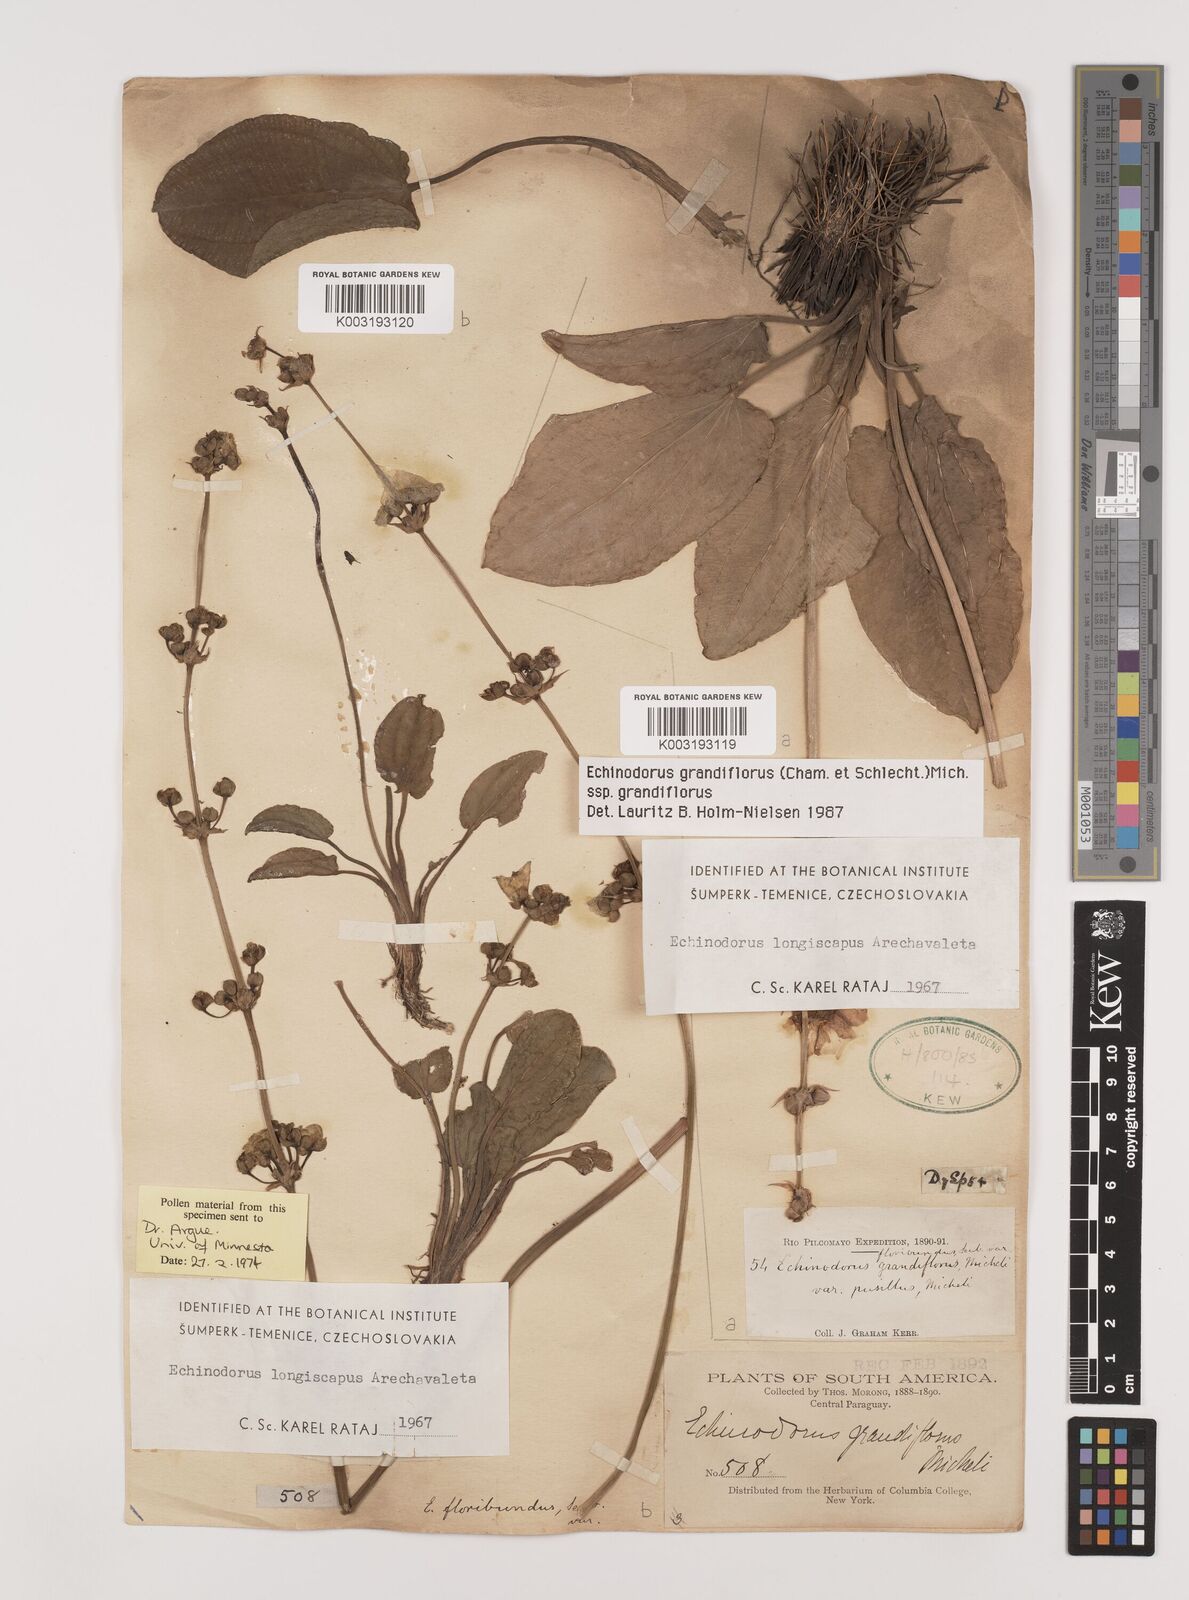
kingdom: Plantae
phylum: Tracheophyta
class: Liliopsida
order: Alismatales
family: Alismataceae
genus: Aquarius
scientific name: Aquarius grandiflorus
